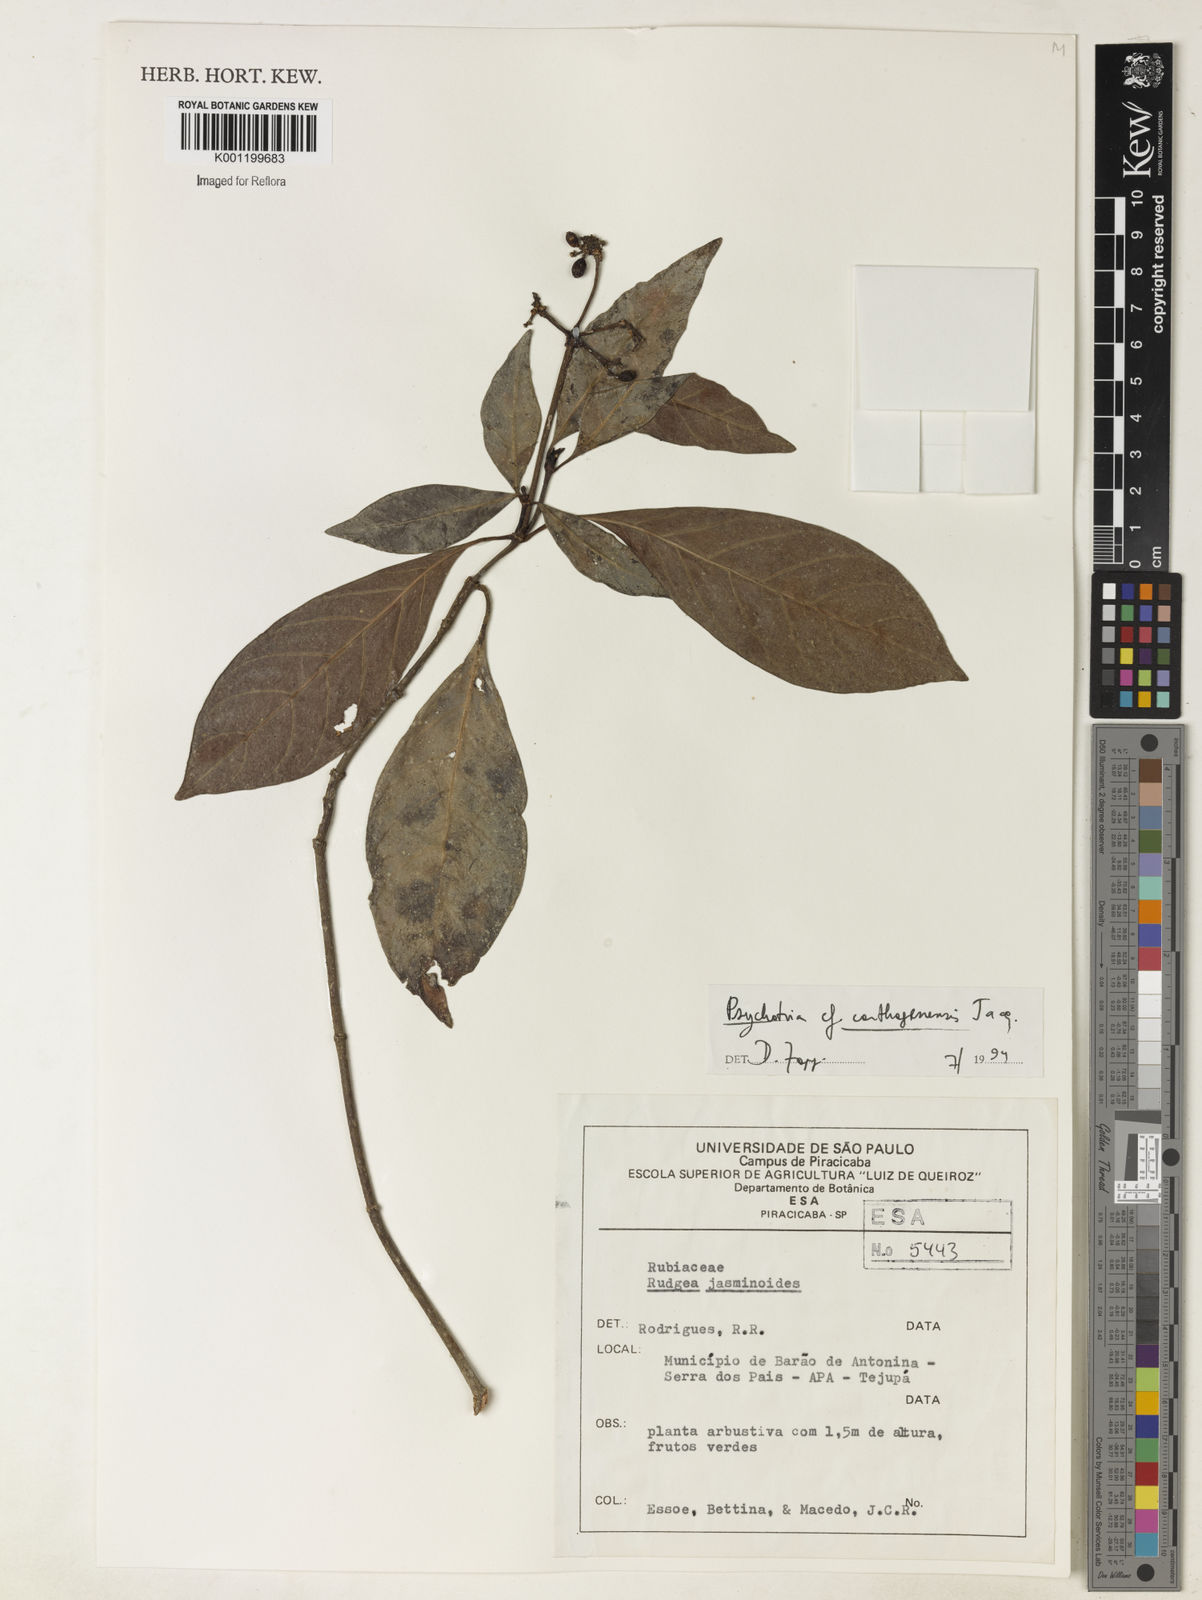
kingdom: Plantae
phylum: Tracheophyta
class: Magnoliopsida
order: Gentianales
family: Rubiaceae
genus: Psychotria
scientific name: Psychotria carthagenensis
